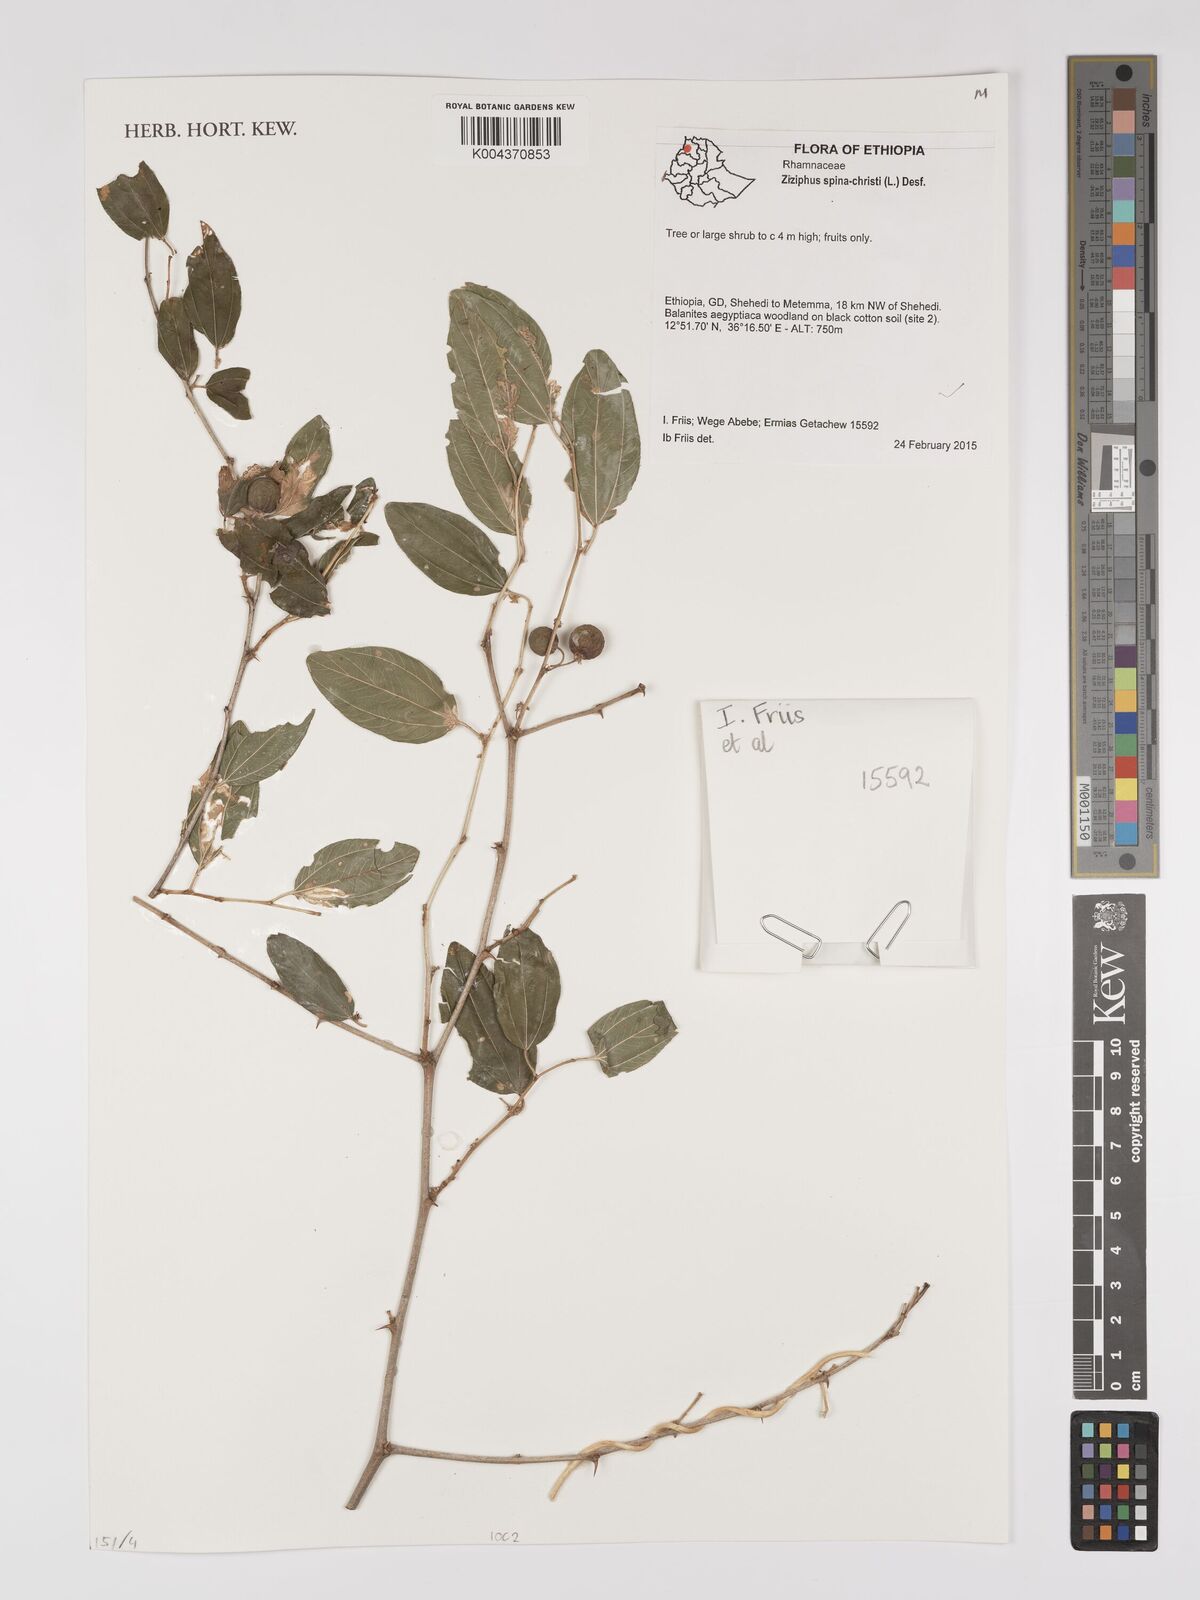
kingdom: Plantae
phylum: Tracheophyta
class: Magnoliopsida
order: Rosales
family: Rhamnaceae
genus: Ziziphus
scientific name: Ziziphus spina-christi
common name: Syrian christ-thorn
